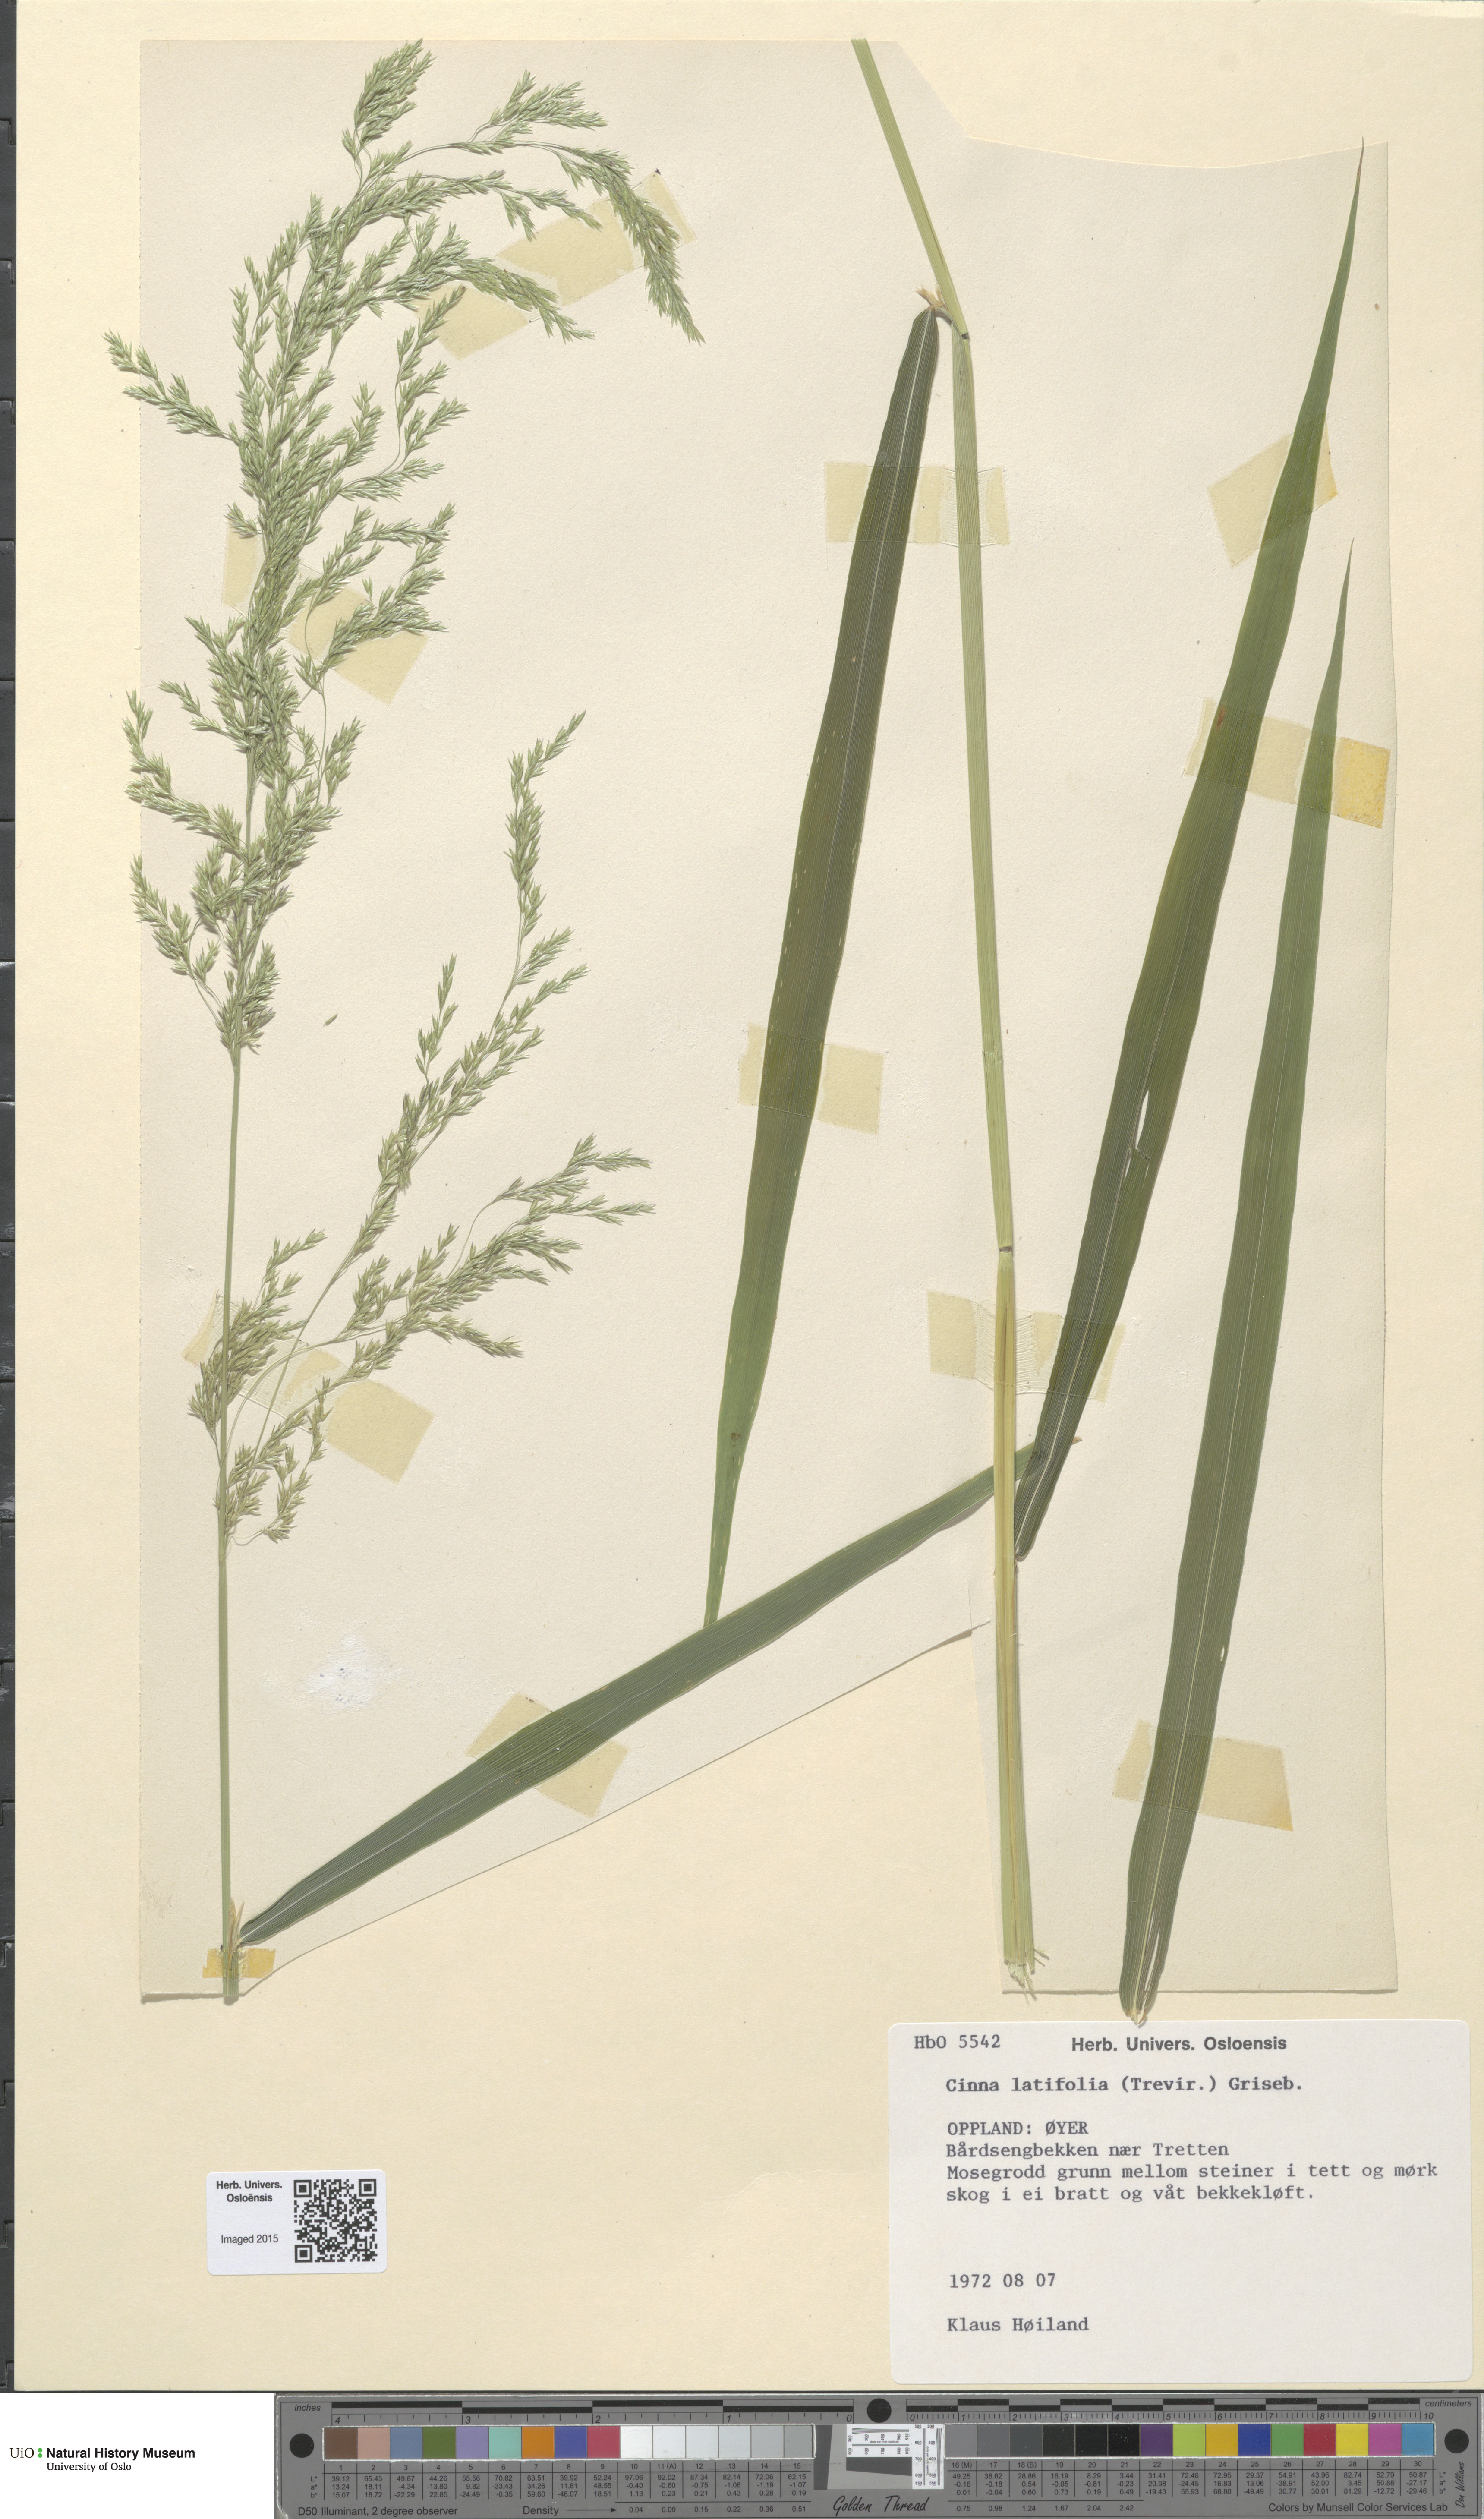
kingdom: Plantae
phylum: Tracheophyta
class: Liliopsida
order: Poales
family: Poaceae
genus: Cinna
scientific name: Cinna latifolia
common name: Drooping woodreed
